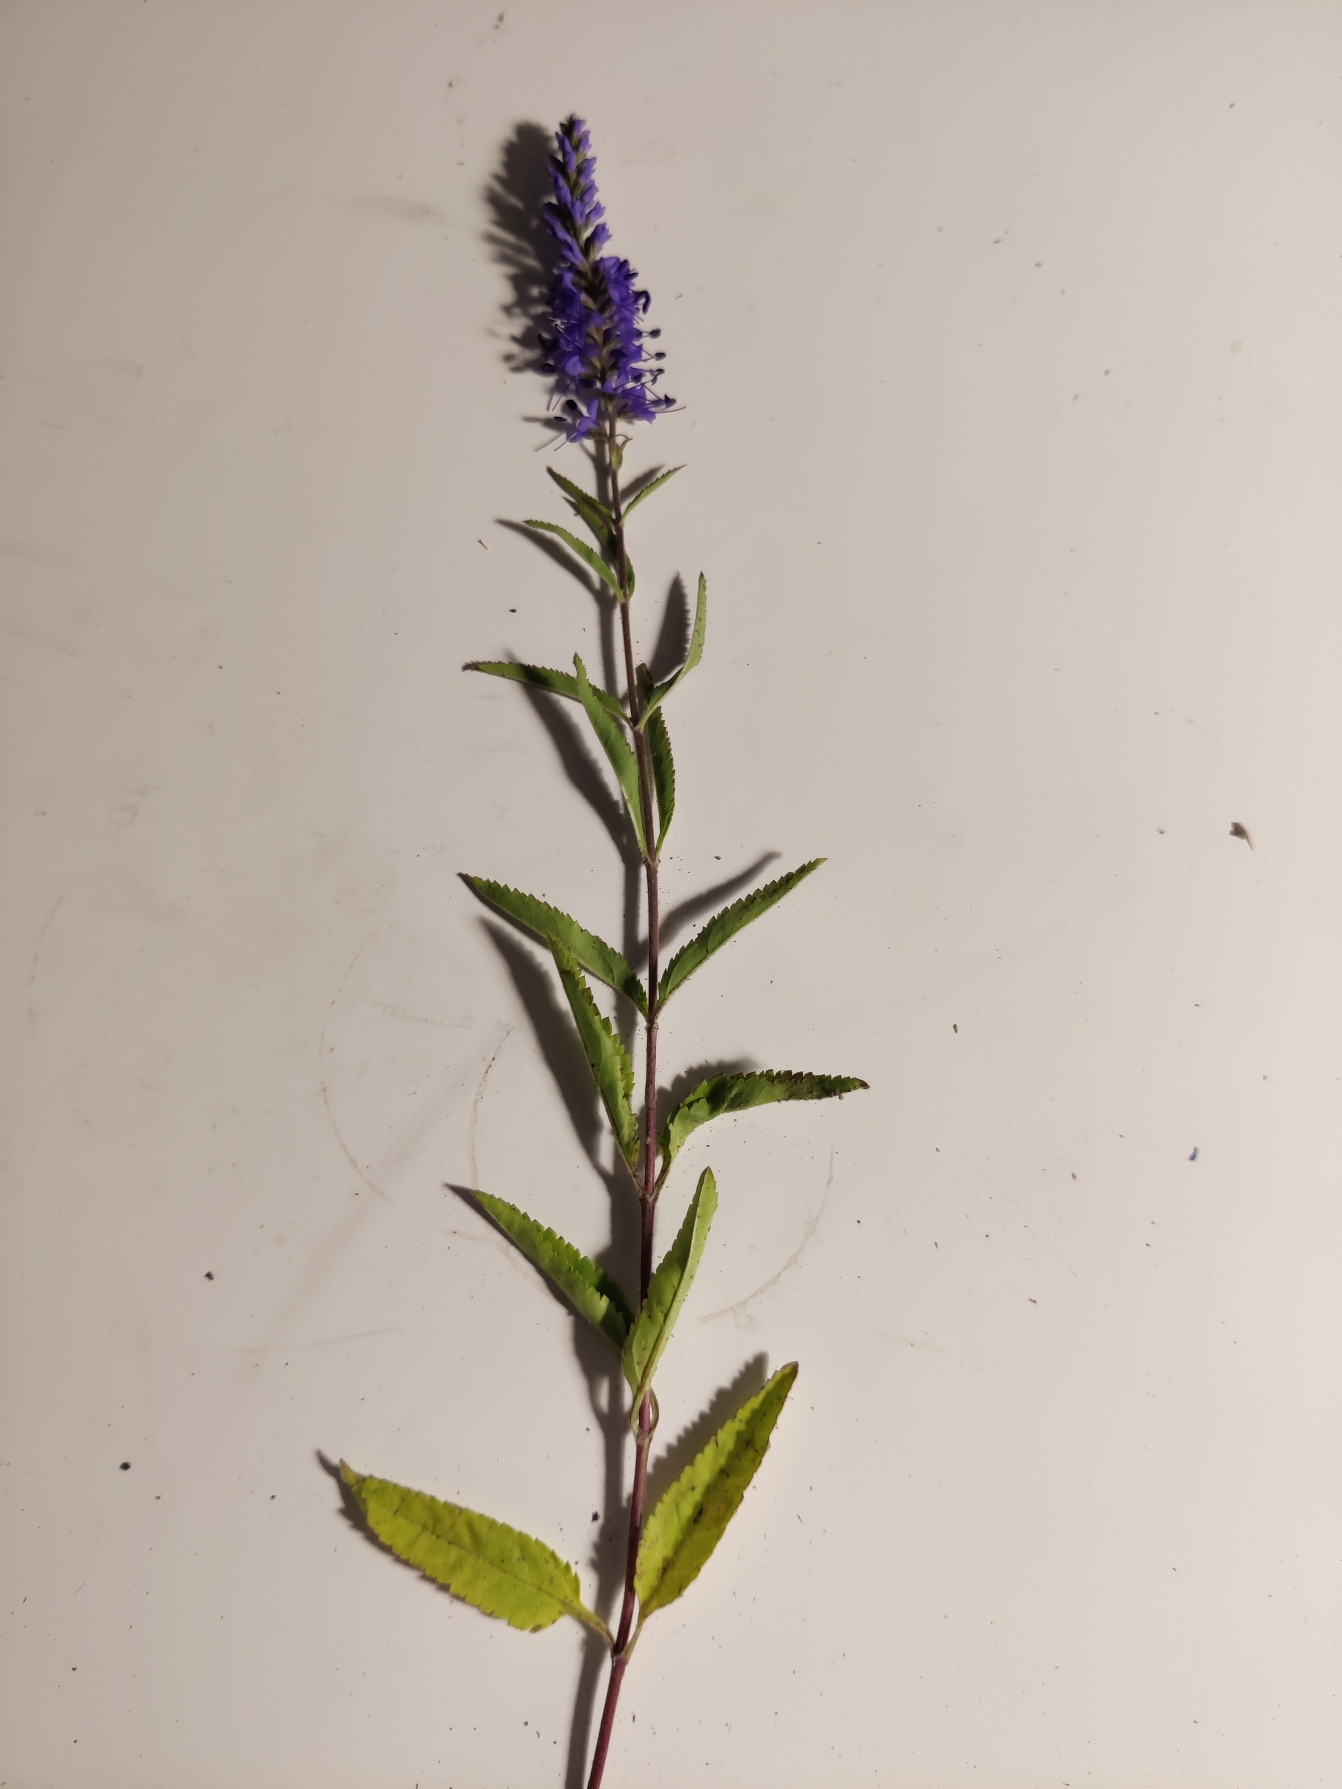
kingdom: Plantae
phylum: Tracheophyta
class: Magnoliopsida
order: Lamiales
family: Plantaginaceae
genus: Veronica
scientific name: Veronica longifolia
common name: Langbladet ærenpris
